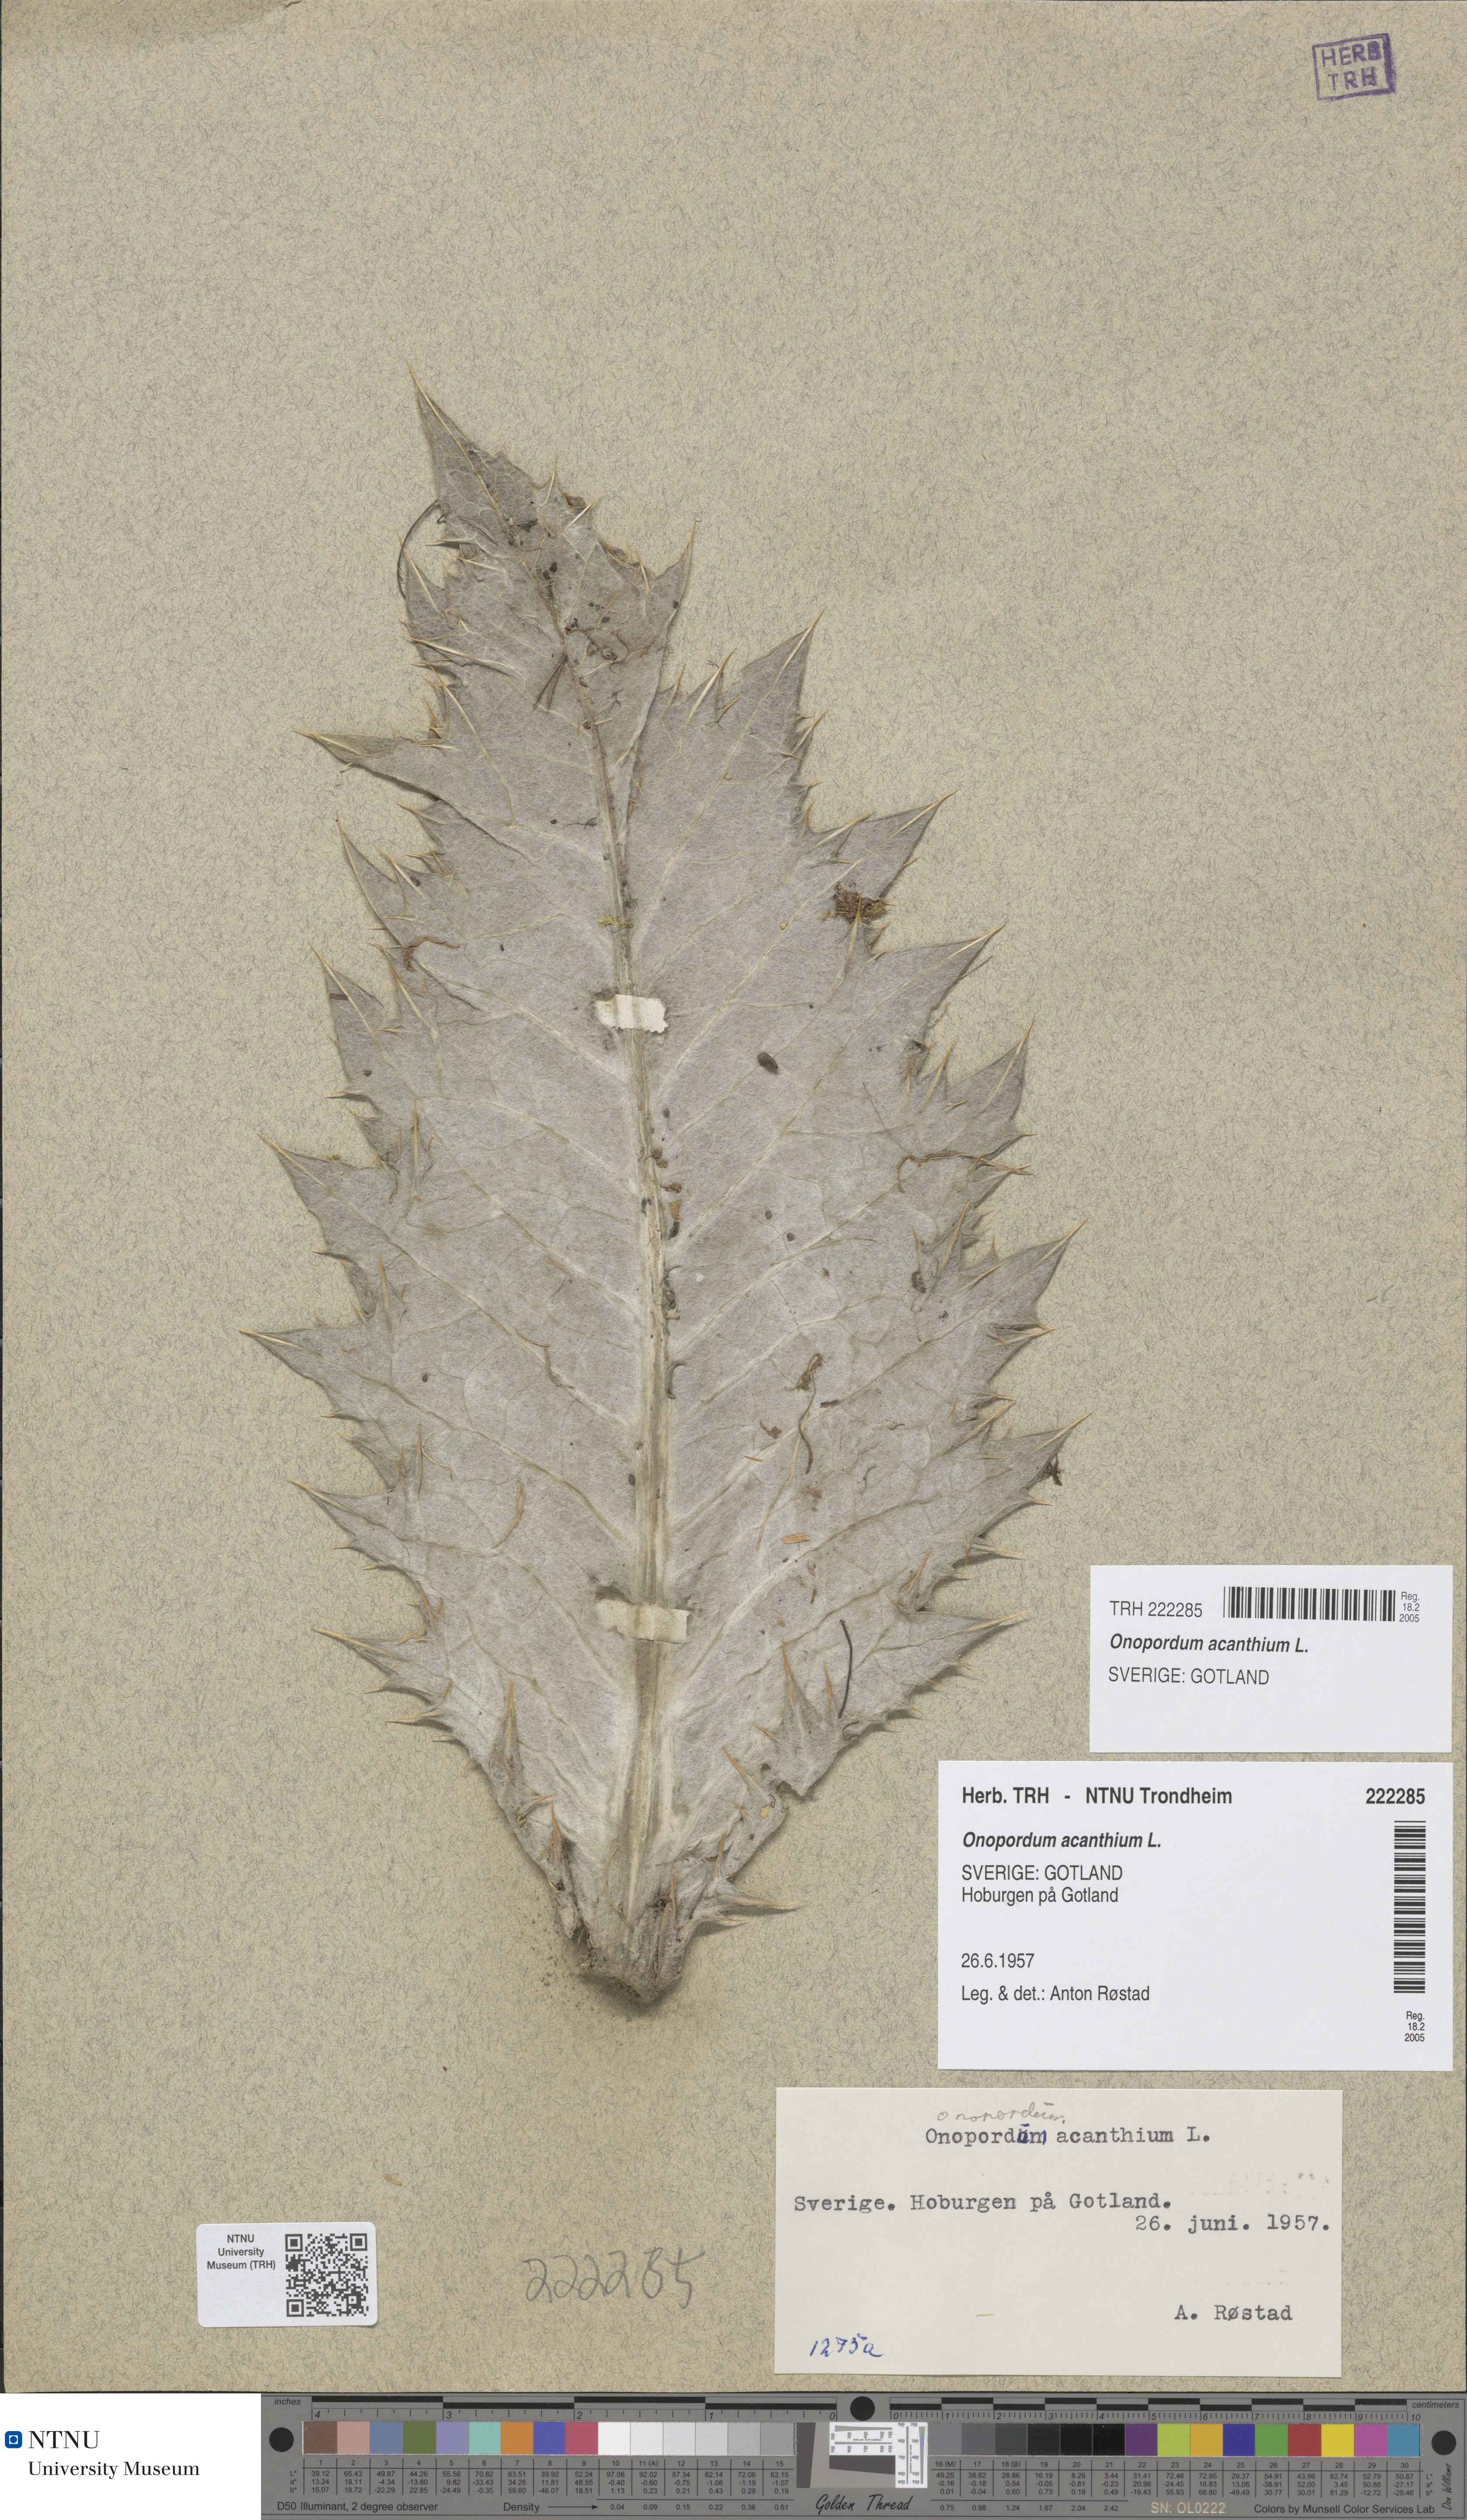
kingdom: Plantae
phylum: Tracheophyta
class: Magnoliopsida
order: Asterales
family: Asteraceae
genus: Onopordum
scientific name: Onopordum acanthium
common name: Scotch thistle
